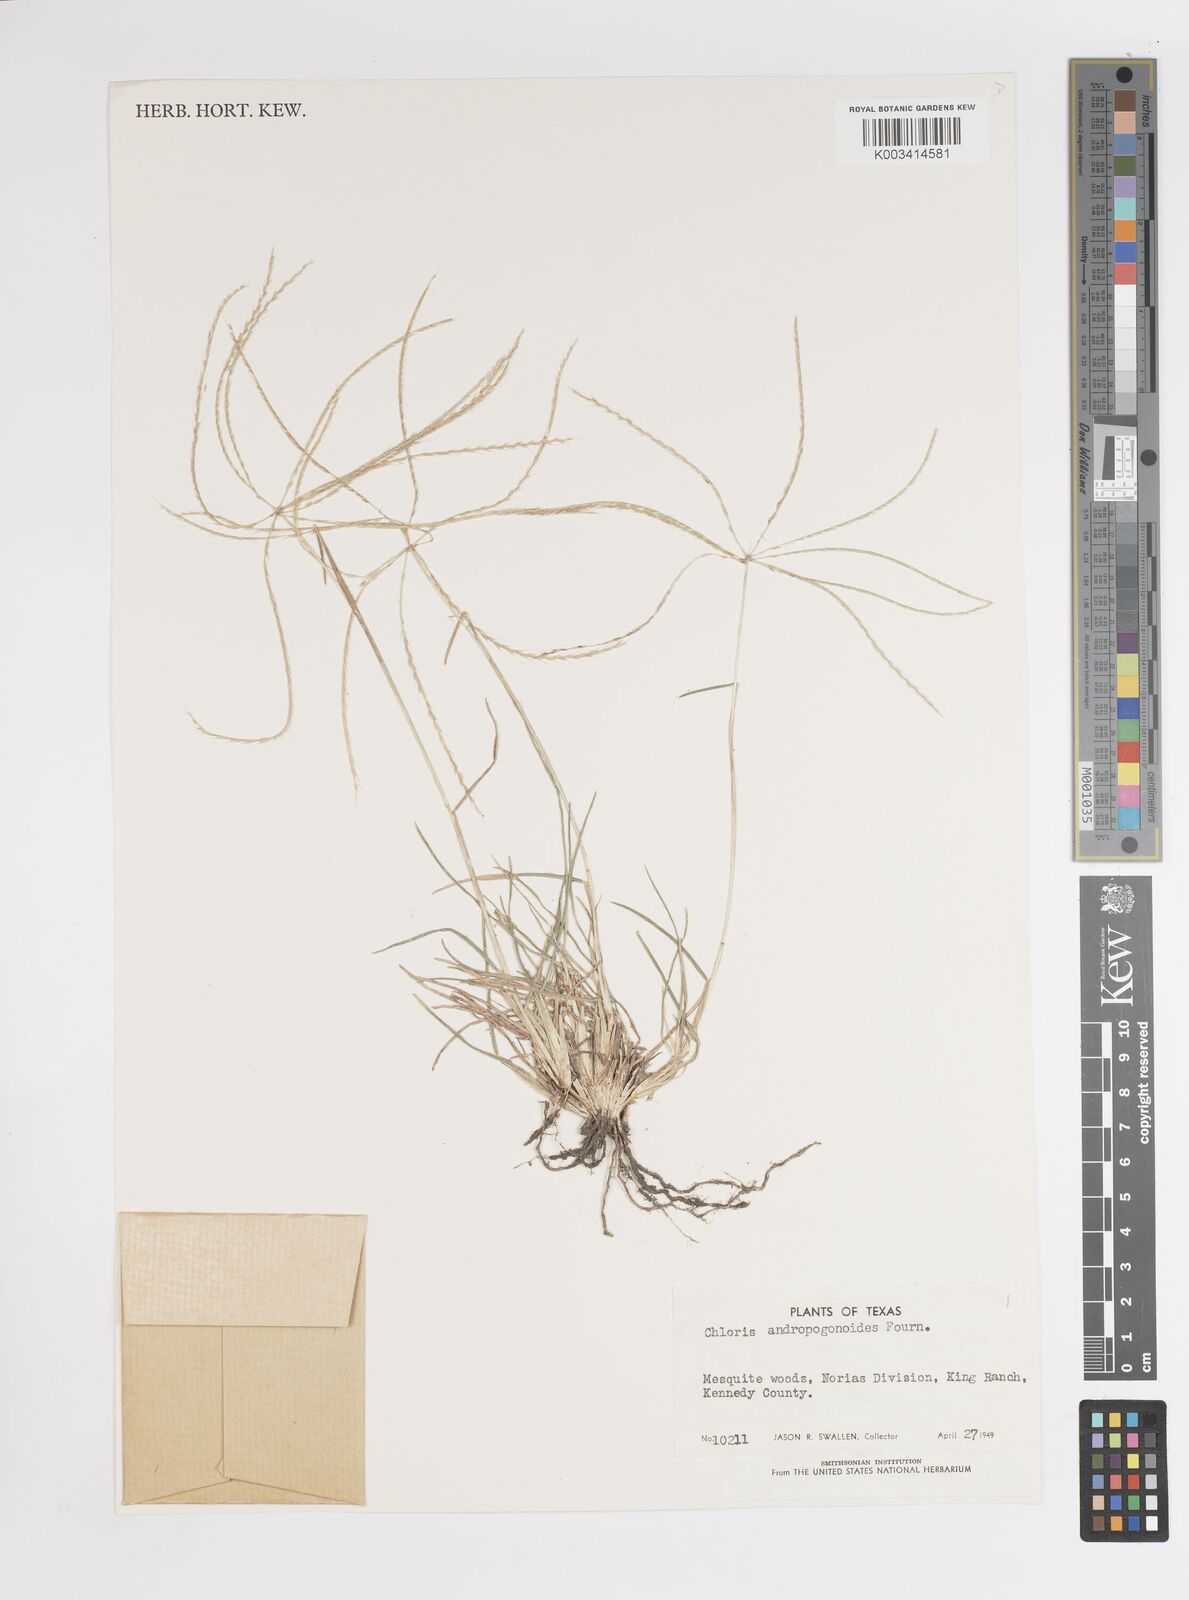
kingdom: Plantae
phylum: Tracheophyta
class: Liliopsida
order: Poales
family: Poaceae
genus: Chloris
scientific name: Chloris andropogonoides
